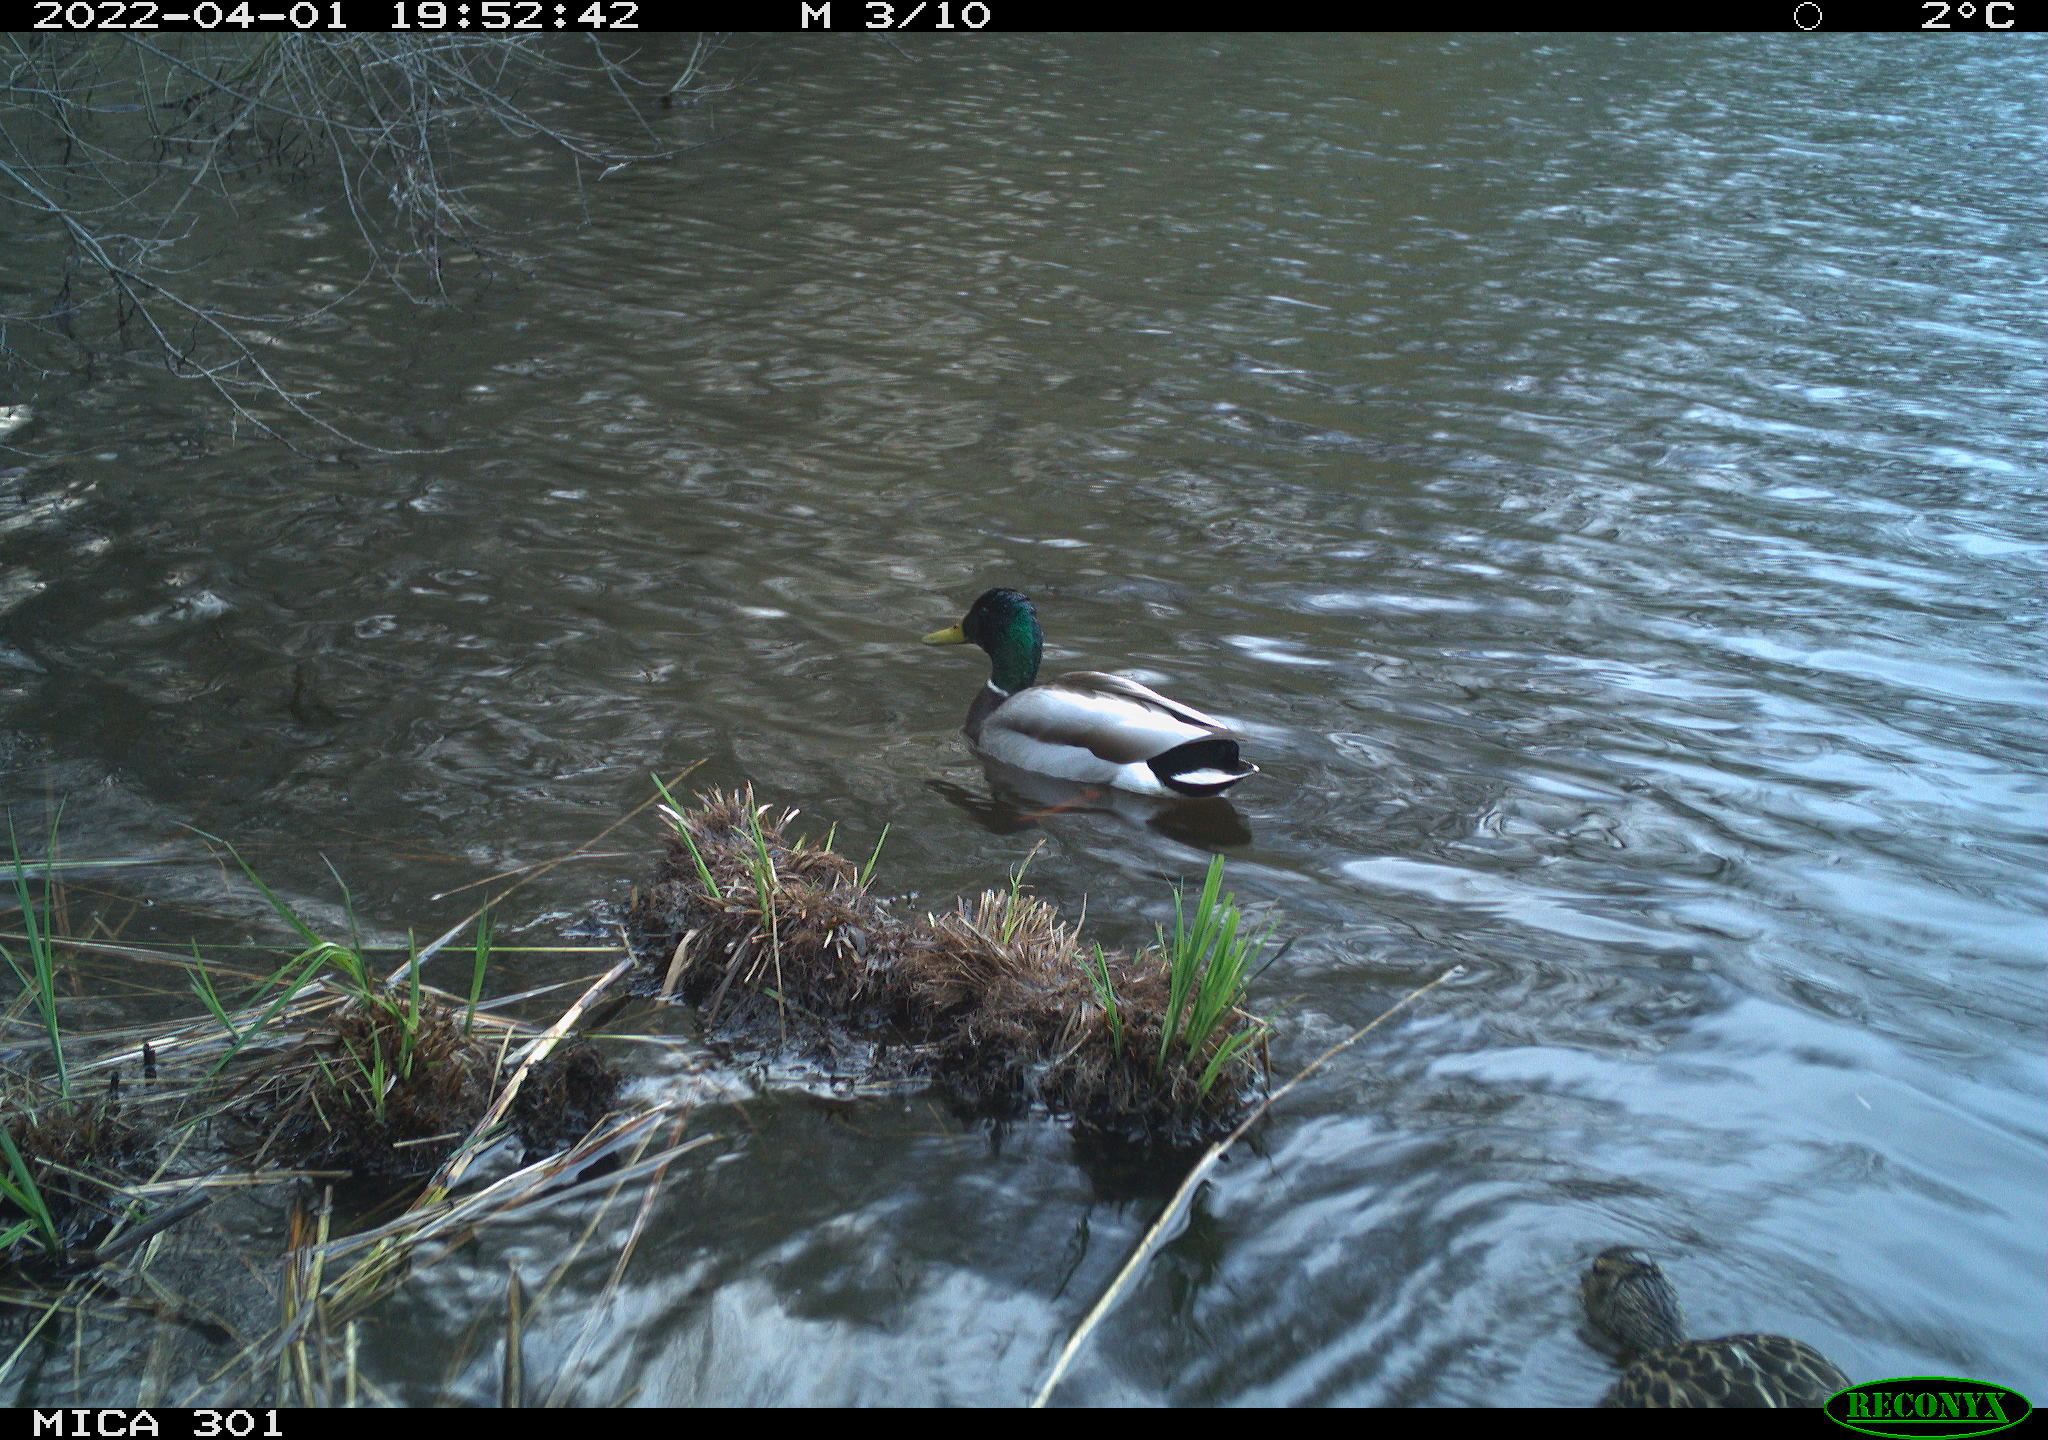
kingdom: Animalia
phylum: Chordata
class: Aves
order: Anseriformes
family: Anatidae
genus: Anas
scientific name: Anas platyrhynchos
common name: Mallard
